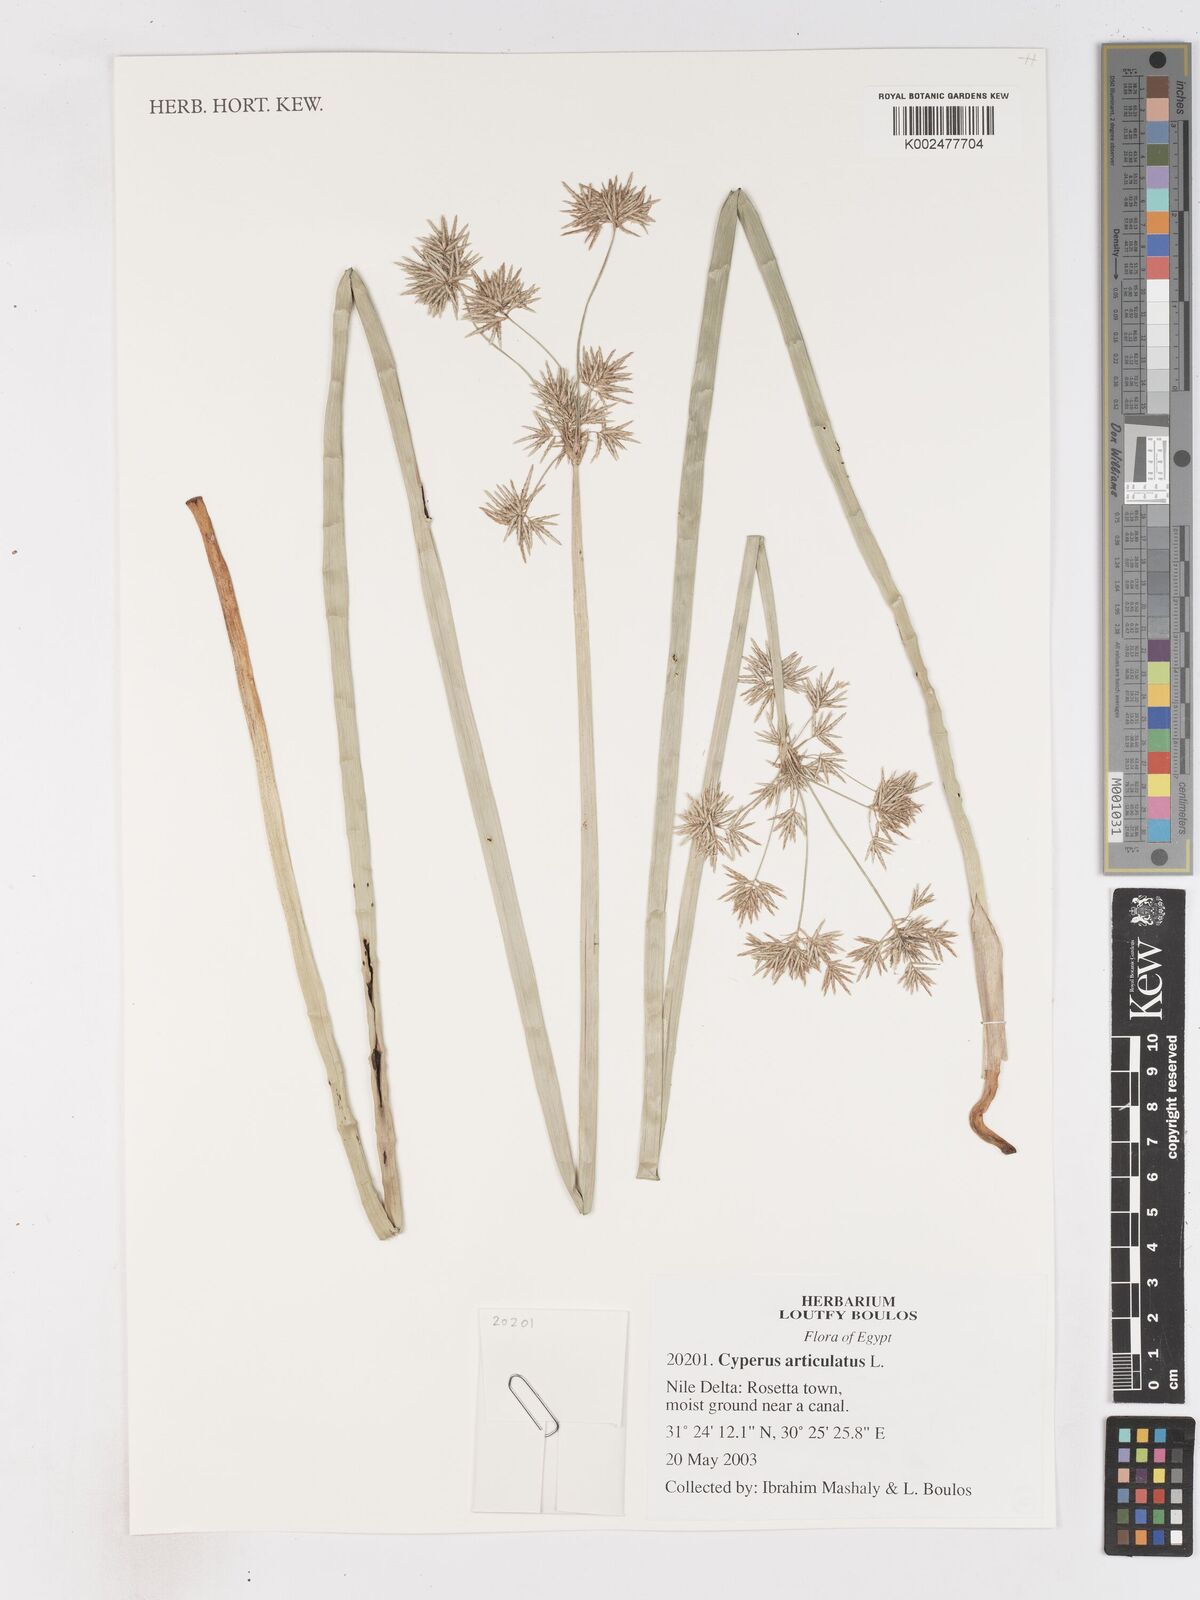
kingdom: Plantae
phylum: Tracheophyta
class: Liliopsida
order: Poales
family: Cyperaceae
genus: Cyperus
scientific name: Cyperus articulatus
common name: Jointed flatsedge
